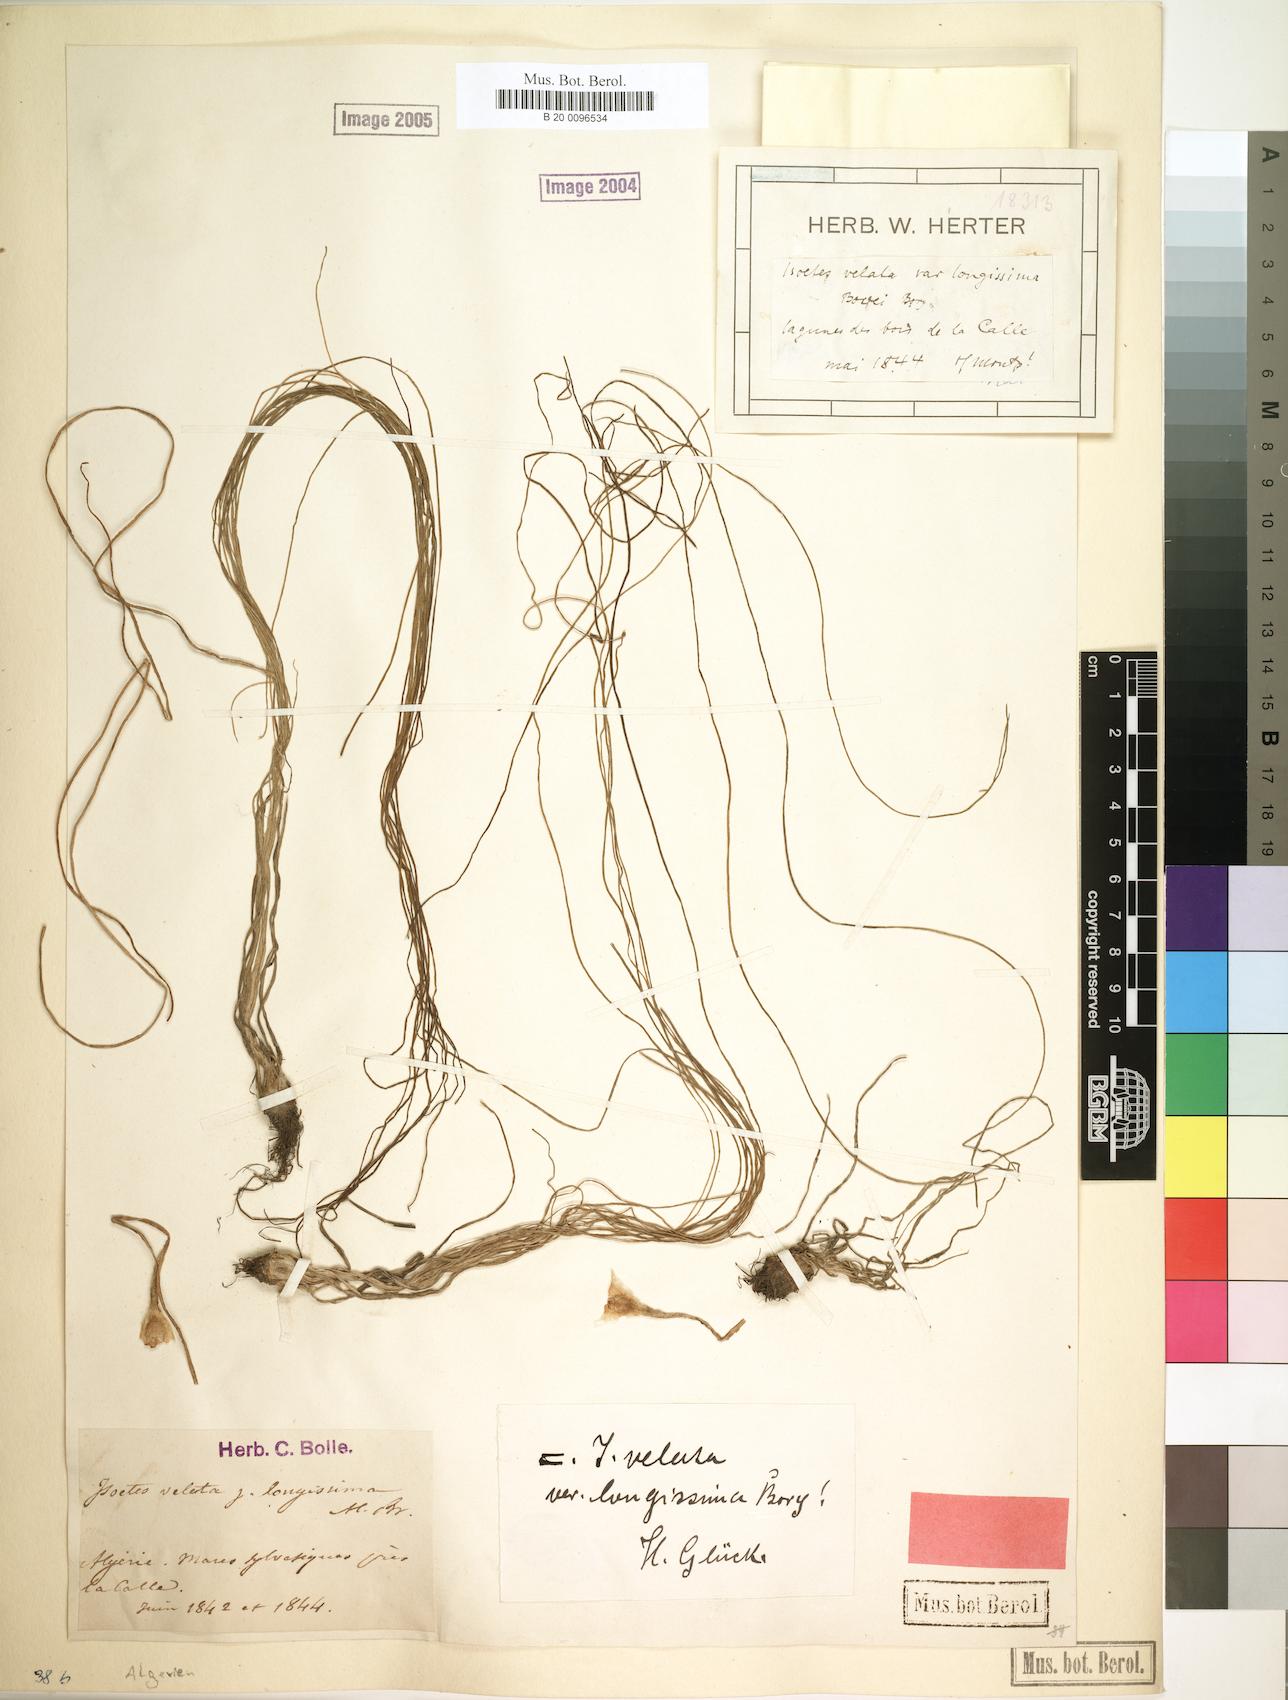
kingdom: Plantae
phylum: Tracheophyta
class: Lycopodiopsida
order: Isoetales
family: Isoetaceae
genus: Isoetes
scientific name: Isoetes longissima
